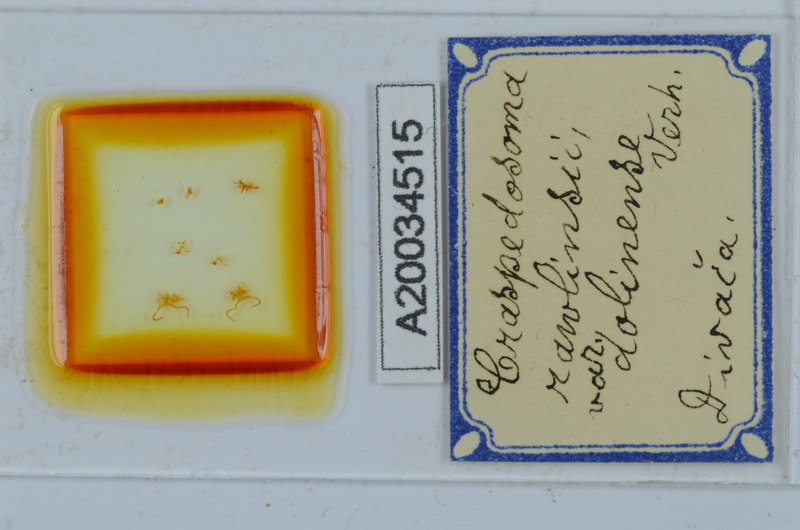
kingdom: Animalia
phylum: Arthropoda
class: Diplopoda
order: Chordeumatida
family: Craspedosomatidae
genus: Craspedosoma
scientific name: Craspedosoma slavum
